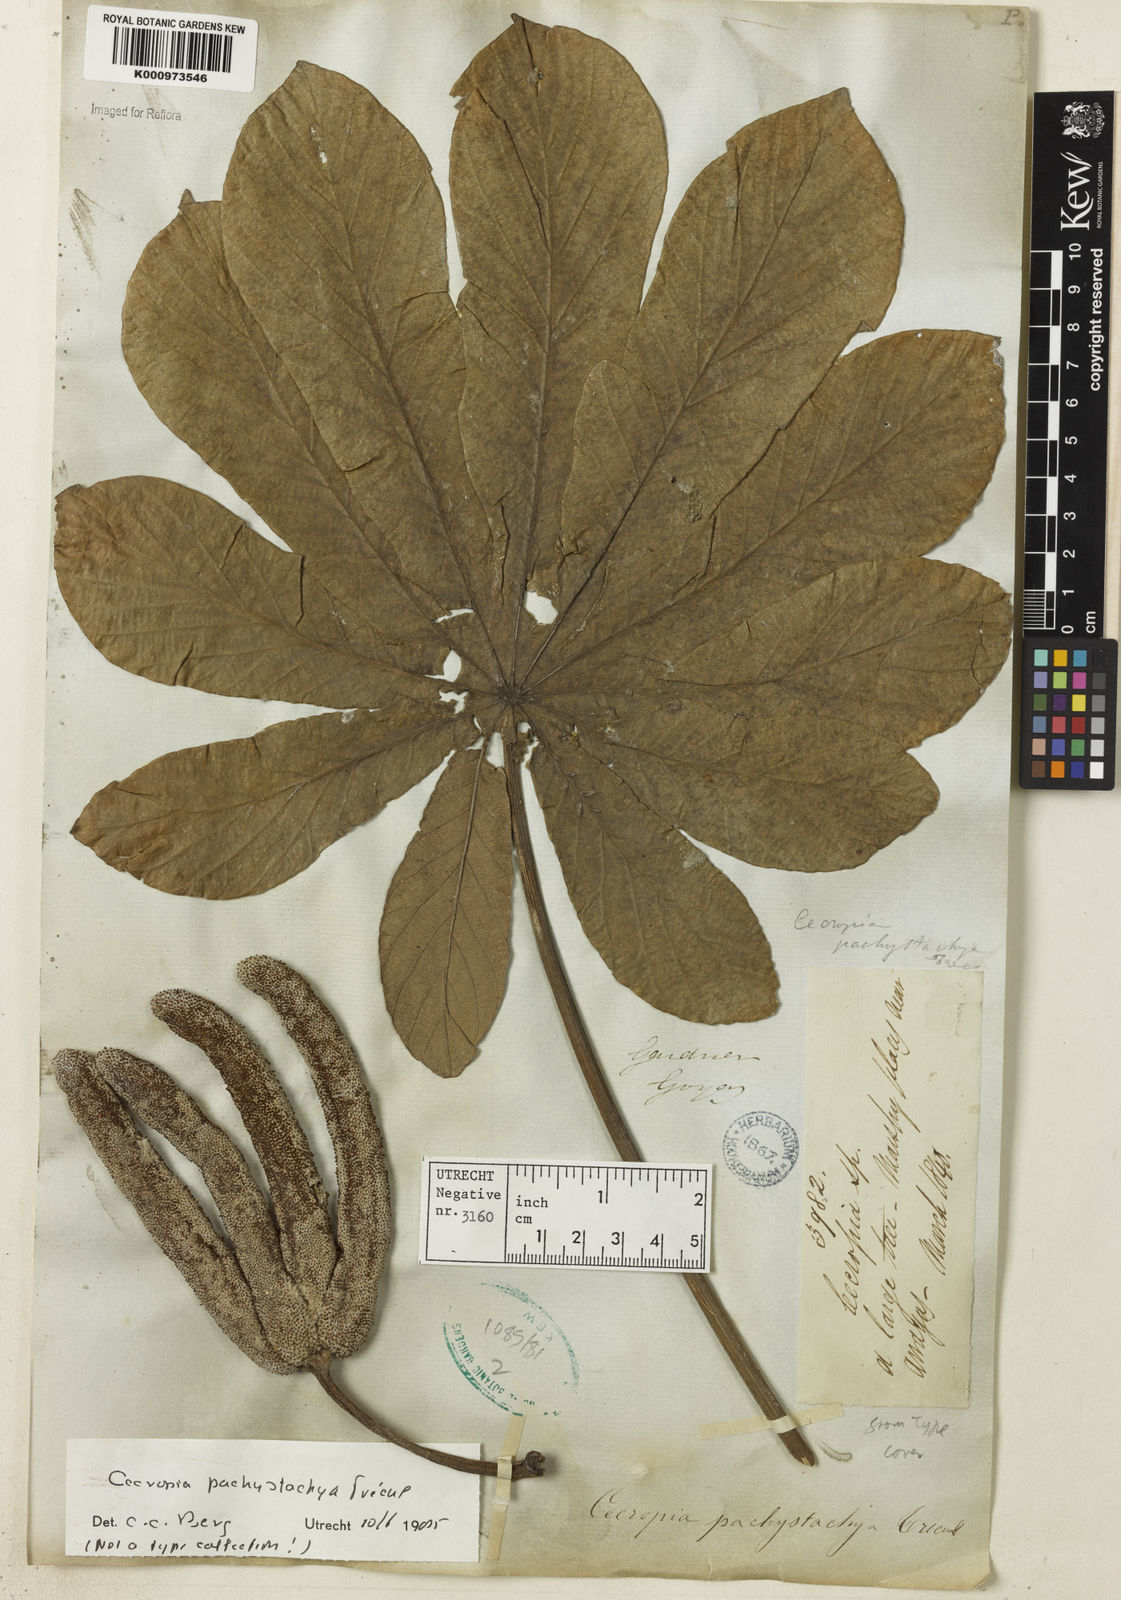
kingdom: Plantae
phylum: Tracheophyta
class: Magnoliopsida
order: Rosales
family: Urticaceae
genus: Cecropia
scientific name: Cecropia
